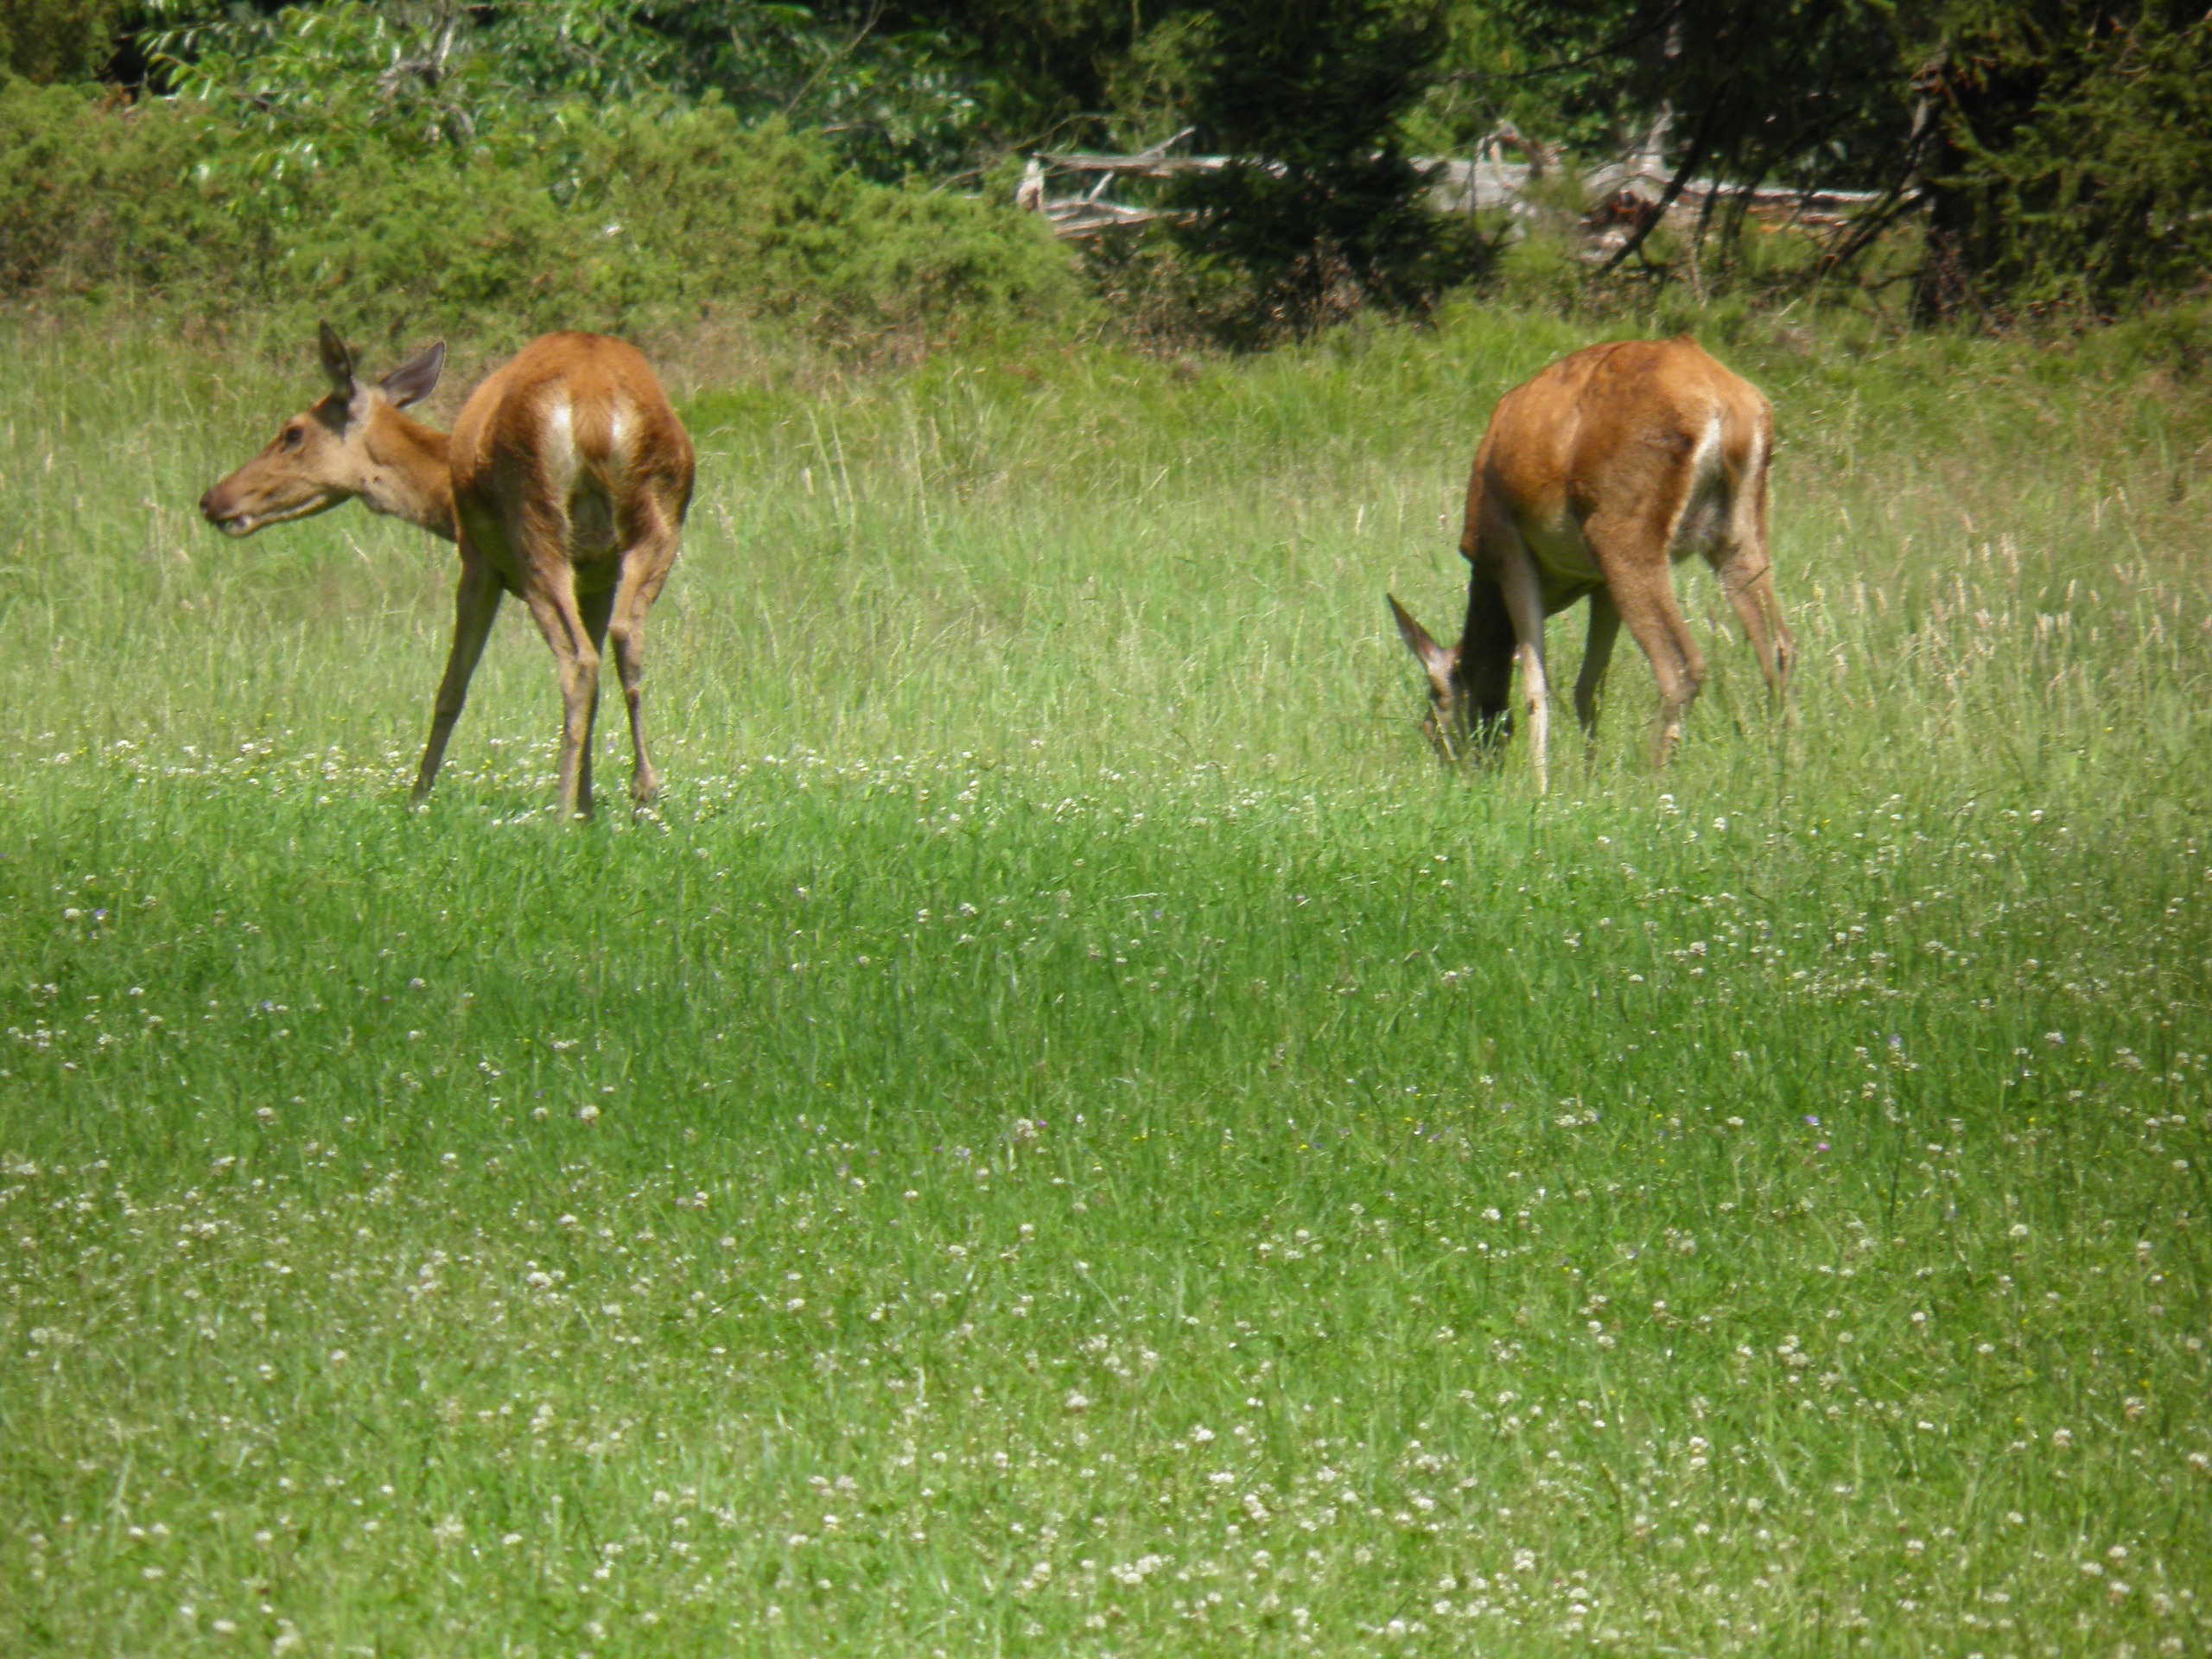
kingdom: Animalia
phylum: Chordata
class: Mammalia
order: Artiodactyla
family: Cervidae
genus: Cervus
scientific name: Cervus elaphus
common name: Krondyr
